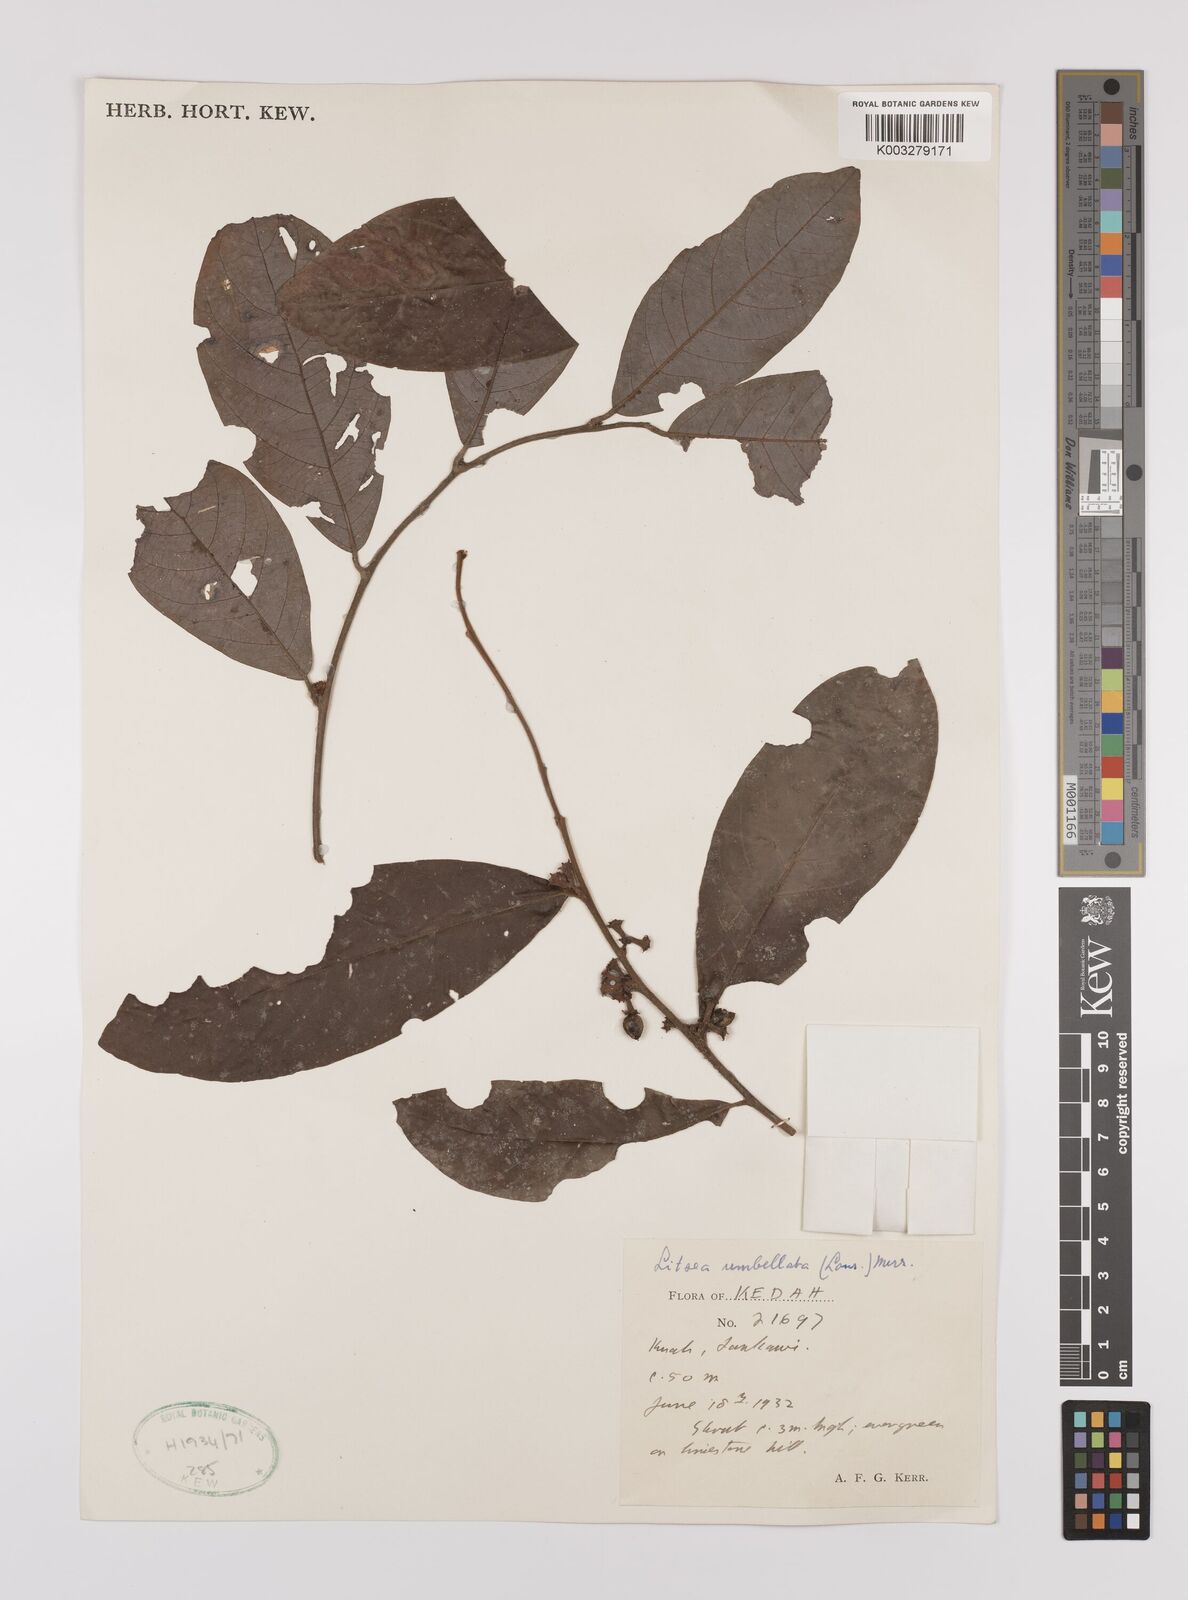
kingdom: Plantae
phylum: Tracheophyta
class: Magnoliopsida
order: Laurales
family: Lauraceae
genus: Litsea
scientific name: Litsea umbellata
